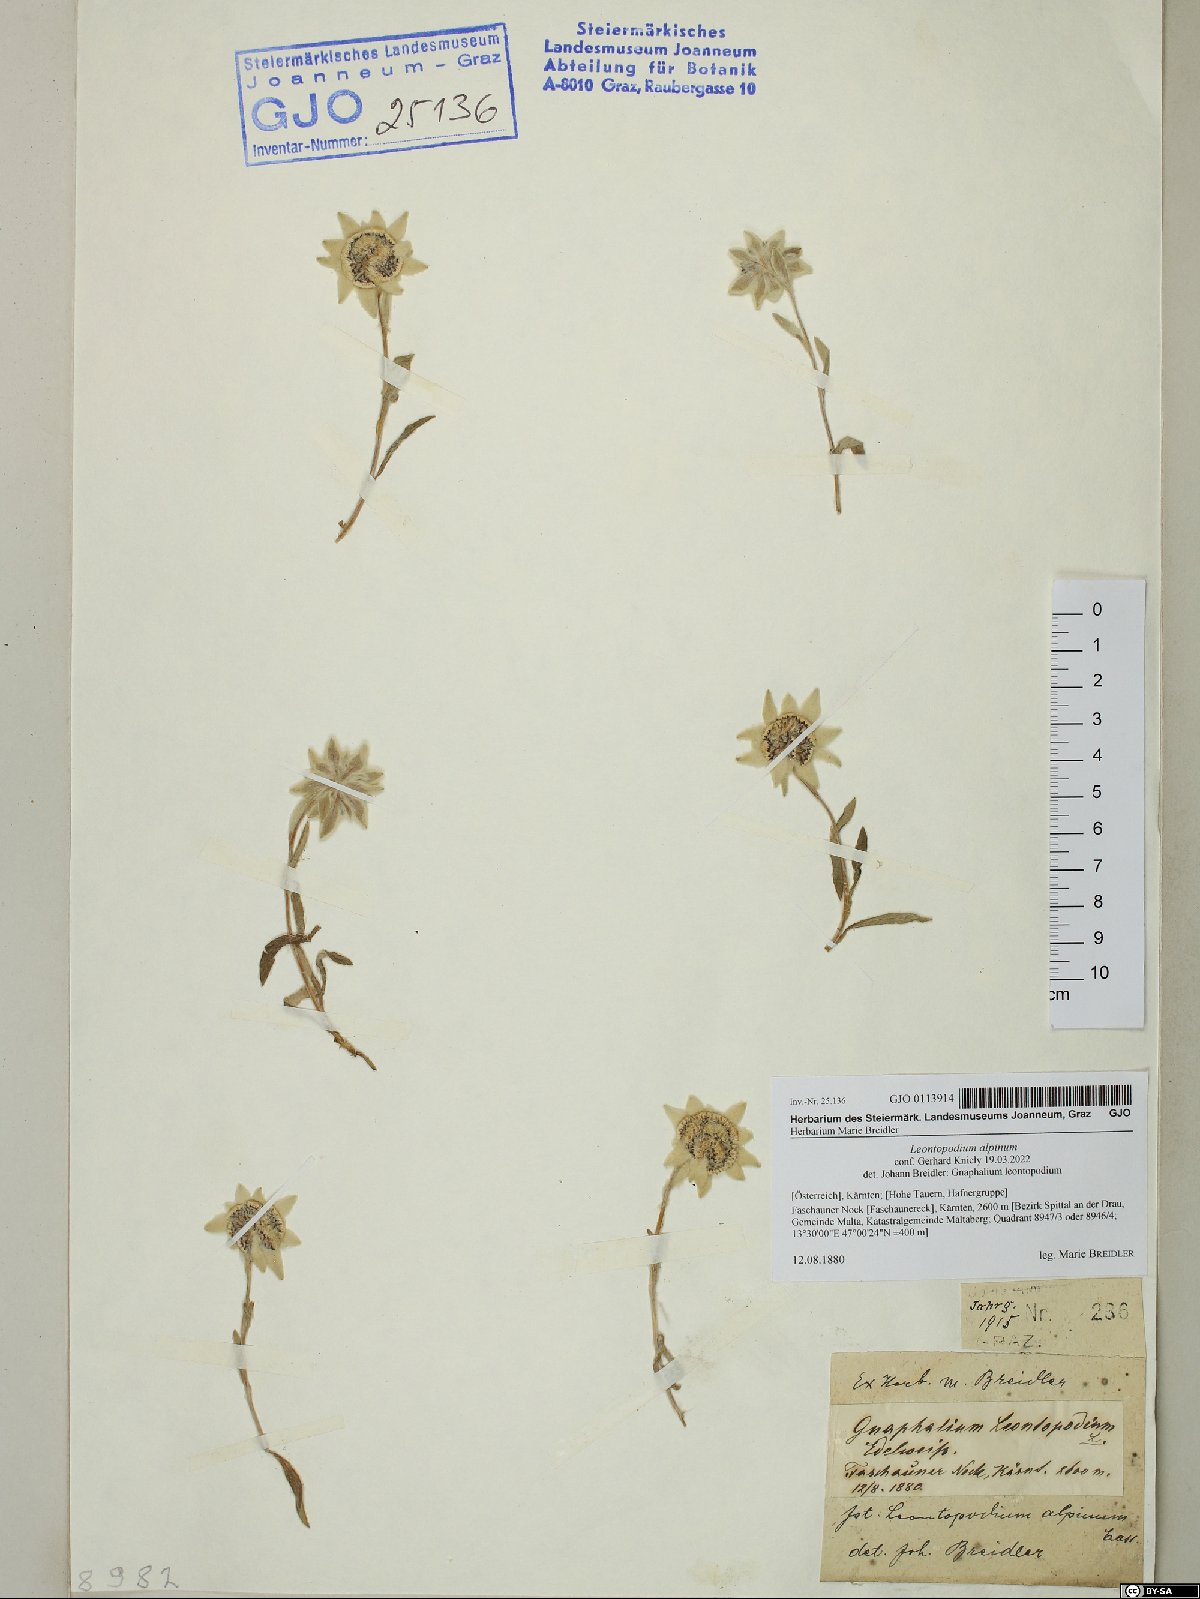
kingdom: Plantae
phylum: Tracheophyta
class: Magnoliopsida
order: Asterales
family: Asteraceae
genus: Leontopodium
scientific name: Leontopodium nivale
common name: Edelweiss
